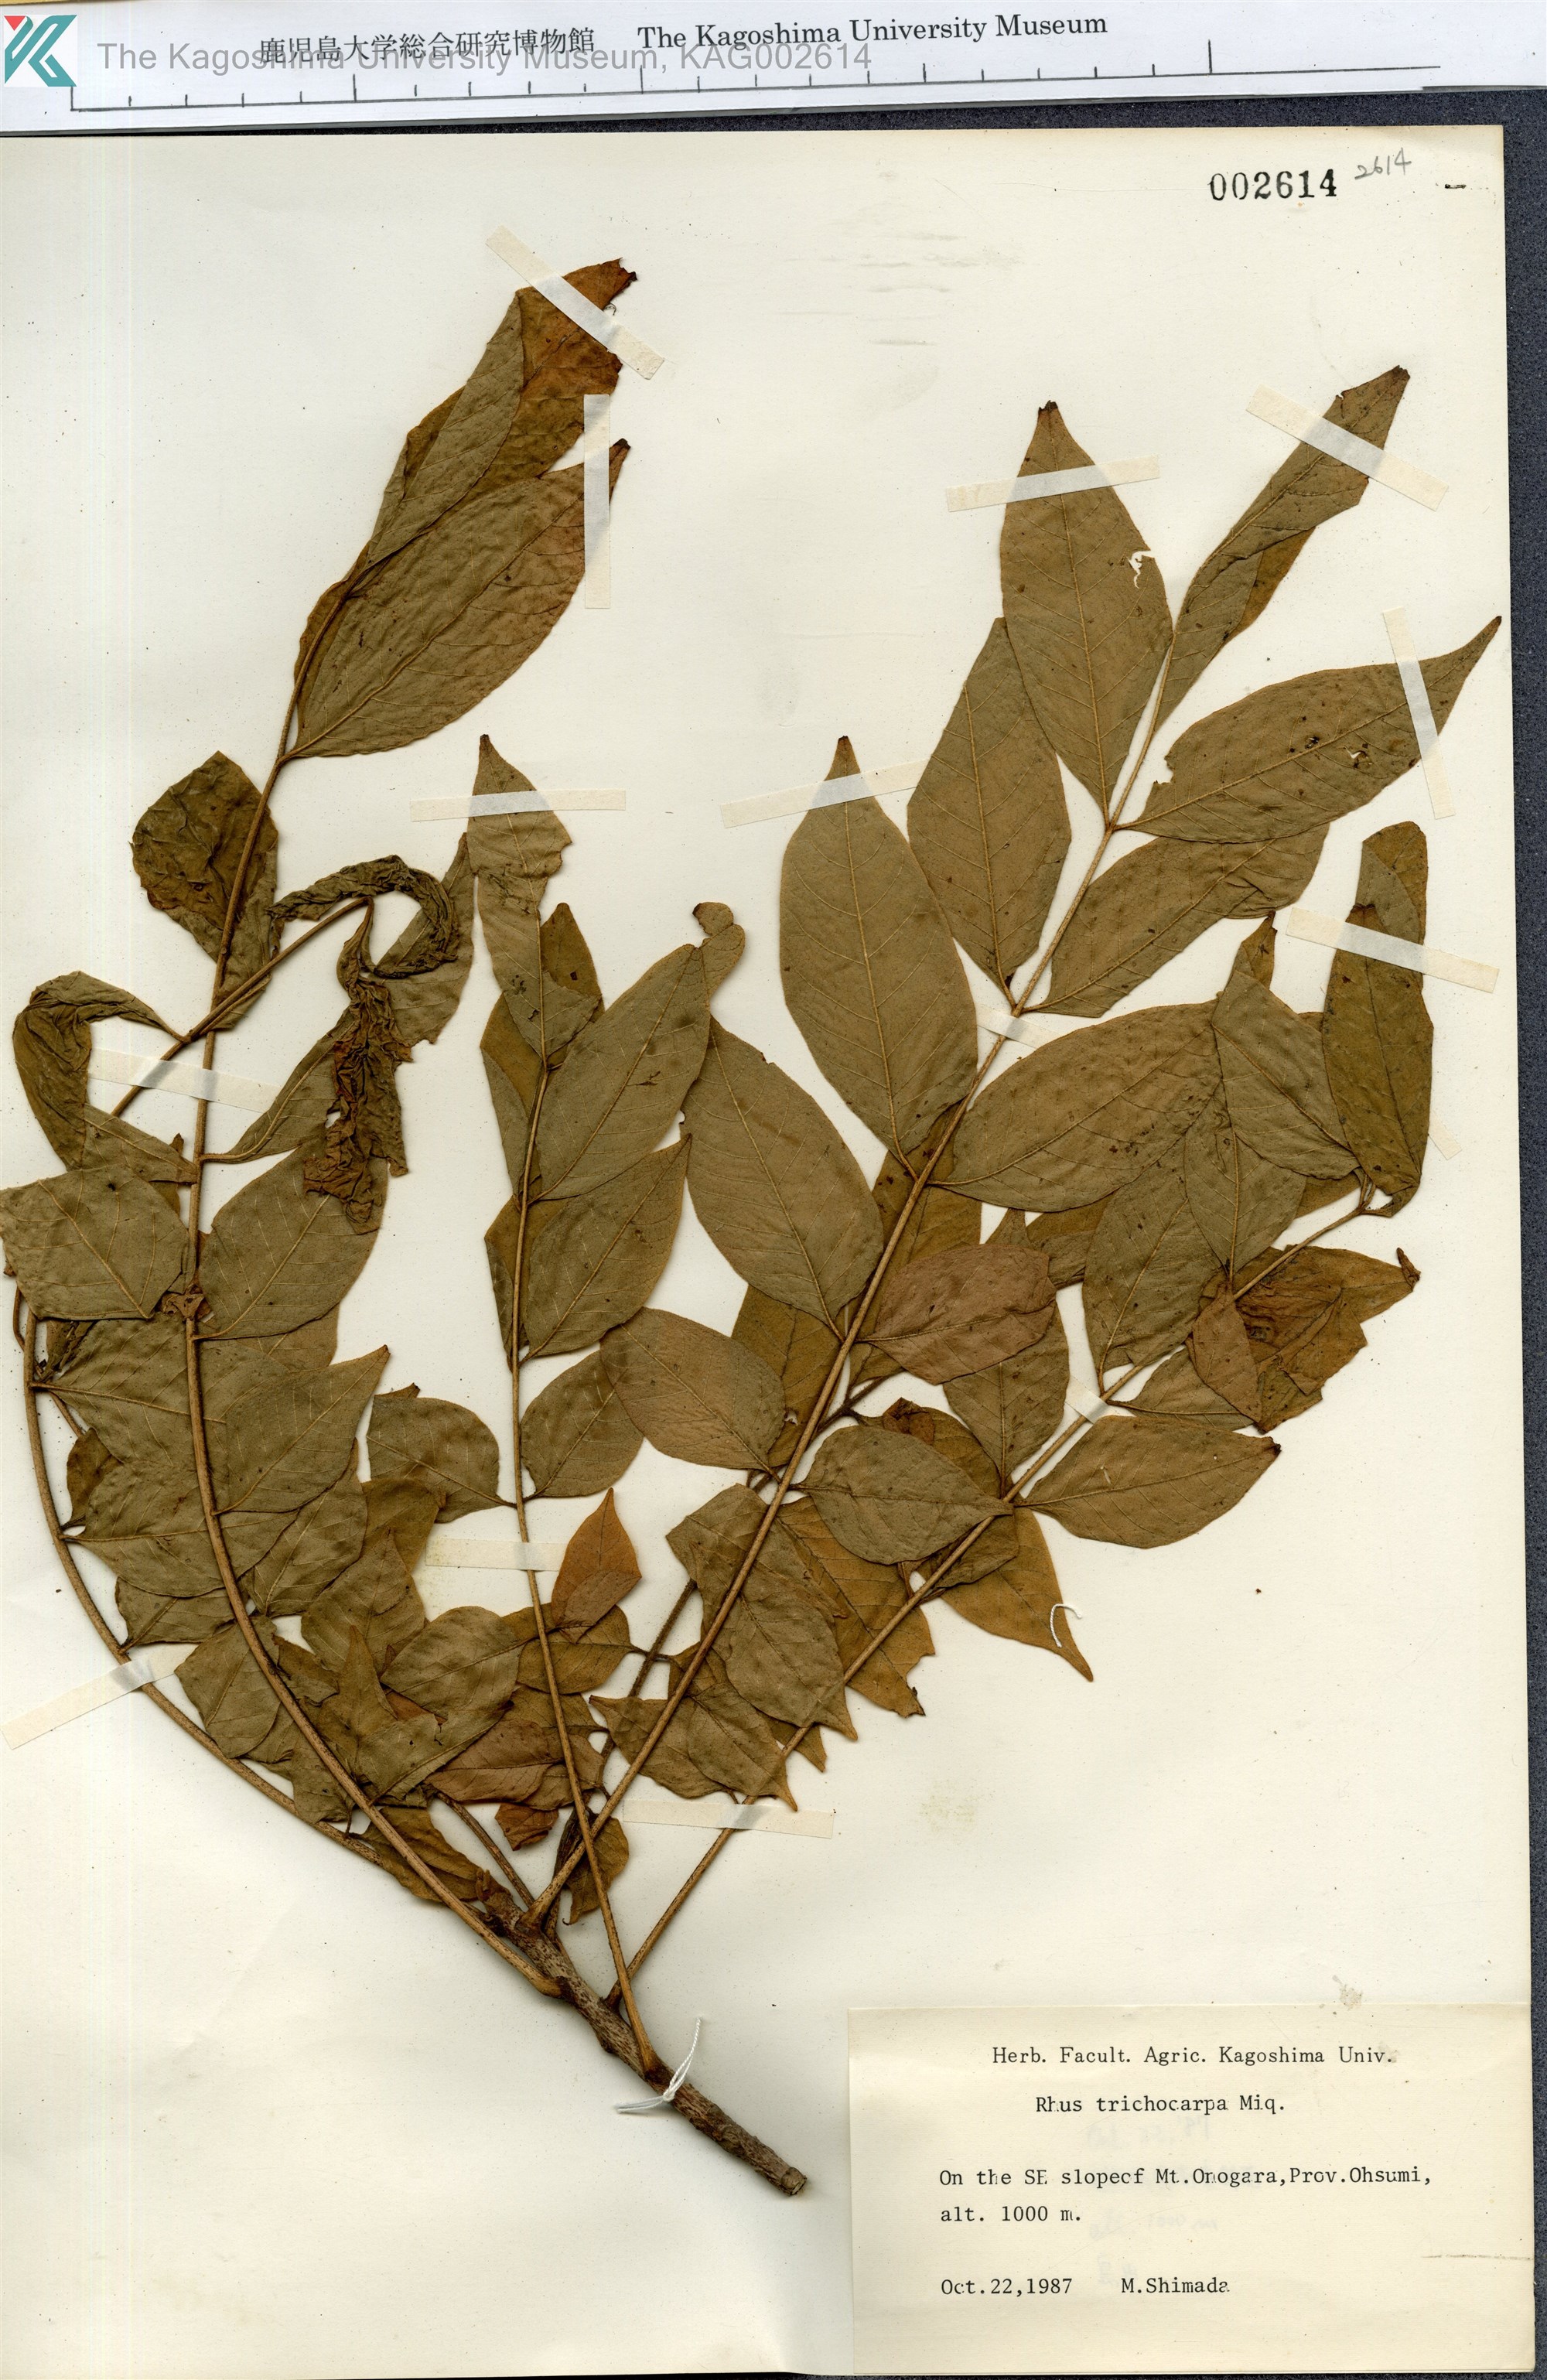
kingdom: Plantae
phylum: Tracheophyta
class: Magnoliopsida
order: Sapindales
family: Anacardiaceae
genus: Toxicodendron
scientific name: Toxicodendron trichocarpum
